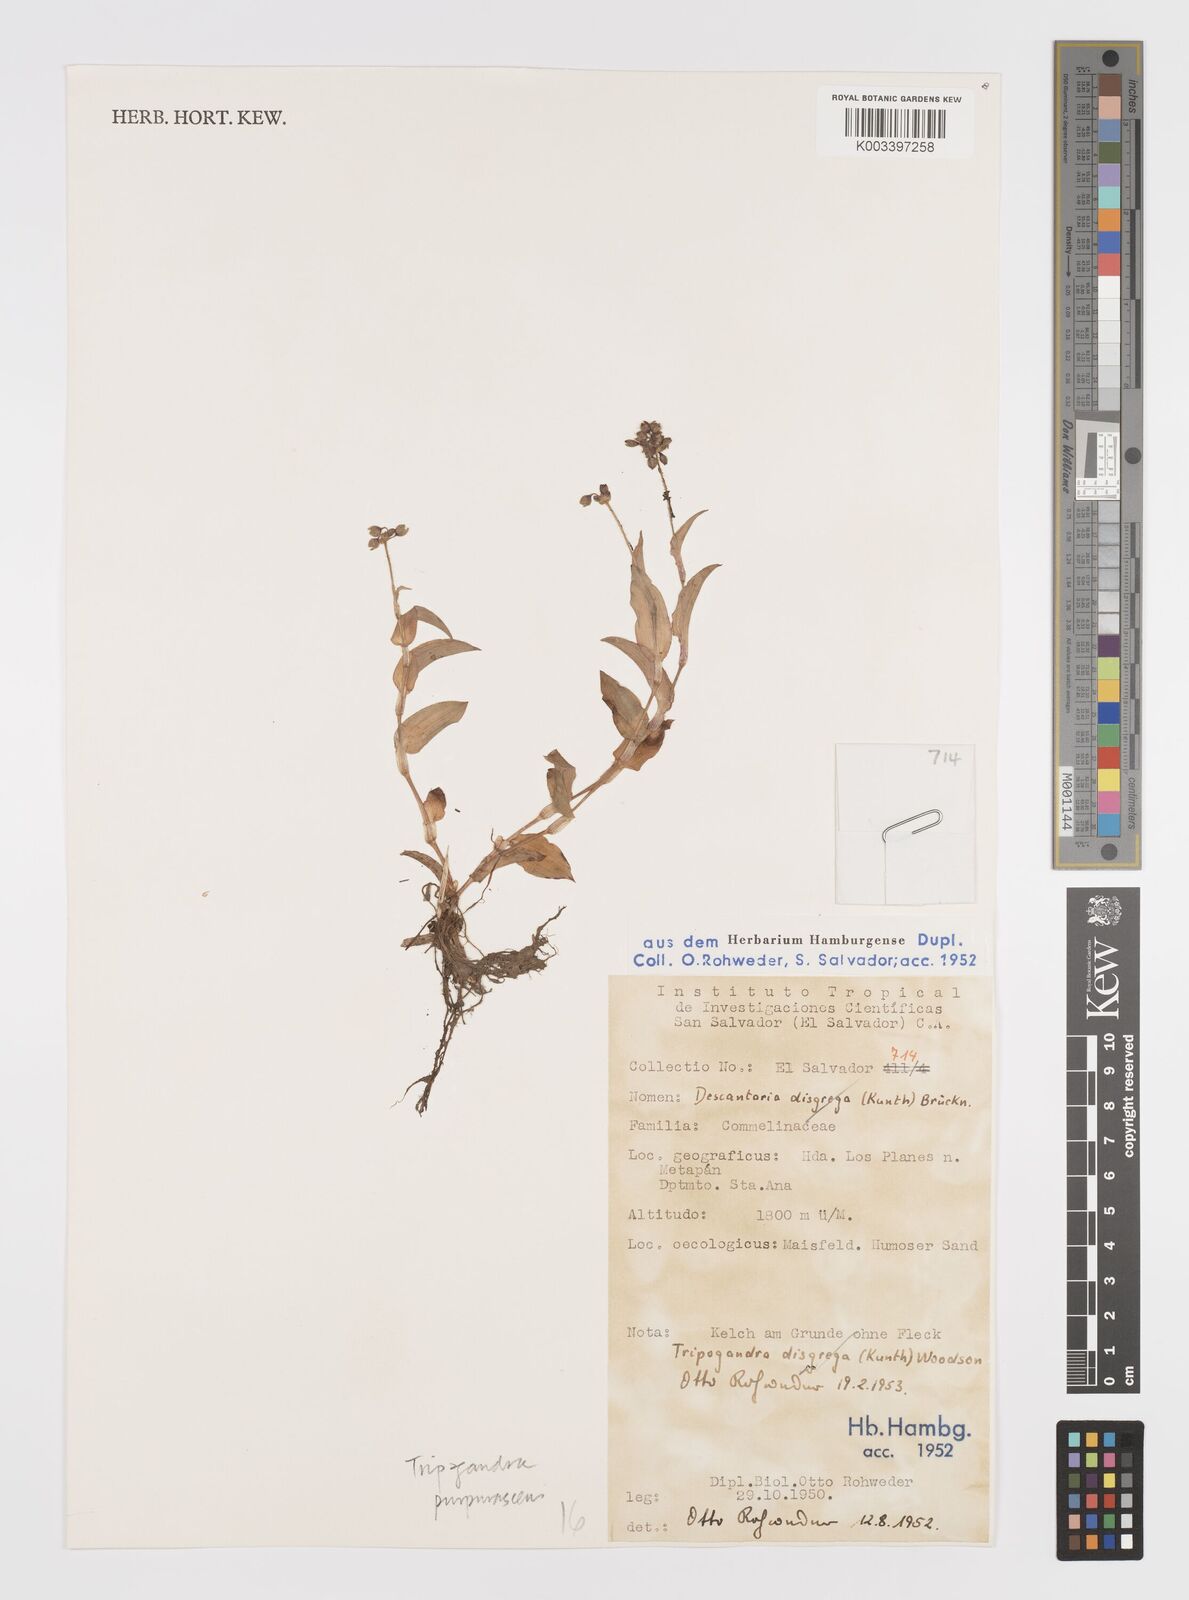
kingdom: Plantae
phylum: Tracheophyta
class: Liliopsida
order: Commelinales
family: Commelinaceae
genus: Callisia
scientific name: Callisia purpurascens
